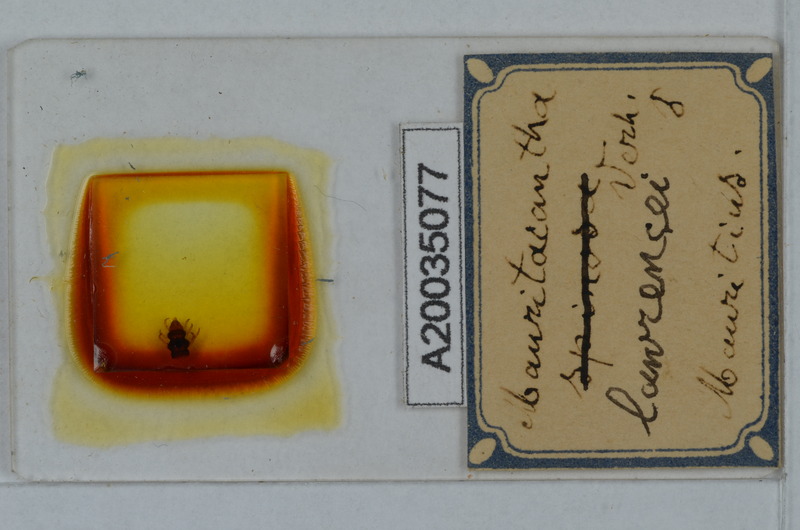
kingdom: Animalia
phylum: Arthropoda
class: Diplopoda
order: Polydesmida
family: Trichopolydesmidae
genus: Mauritacantha
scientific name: Mauritacantha lawrencei
